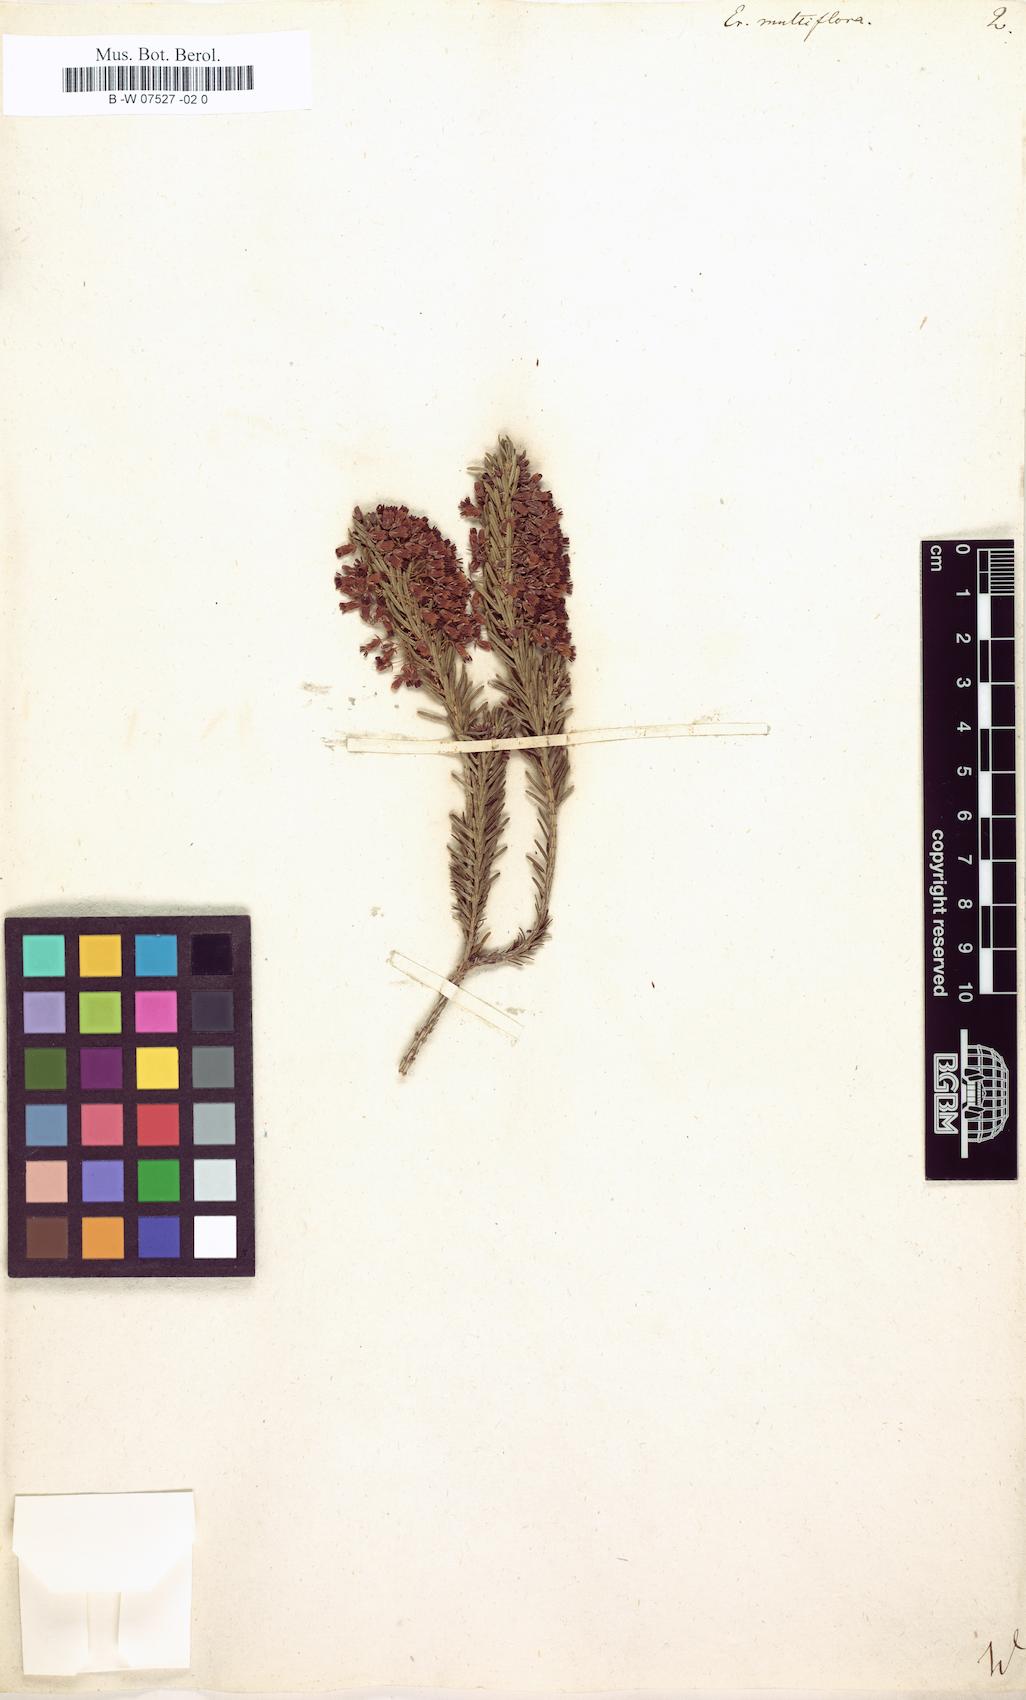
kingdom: Plantae
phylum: Tracheophyta
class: Magnoliopsida
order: Ericales
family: Ericaceae
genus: Erica
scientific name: Erica multiflora
